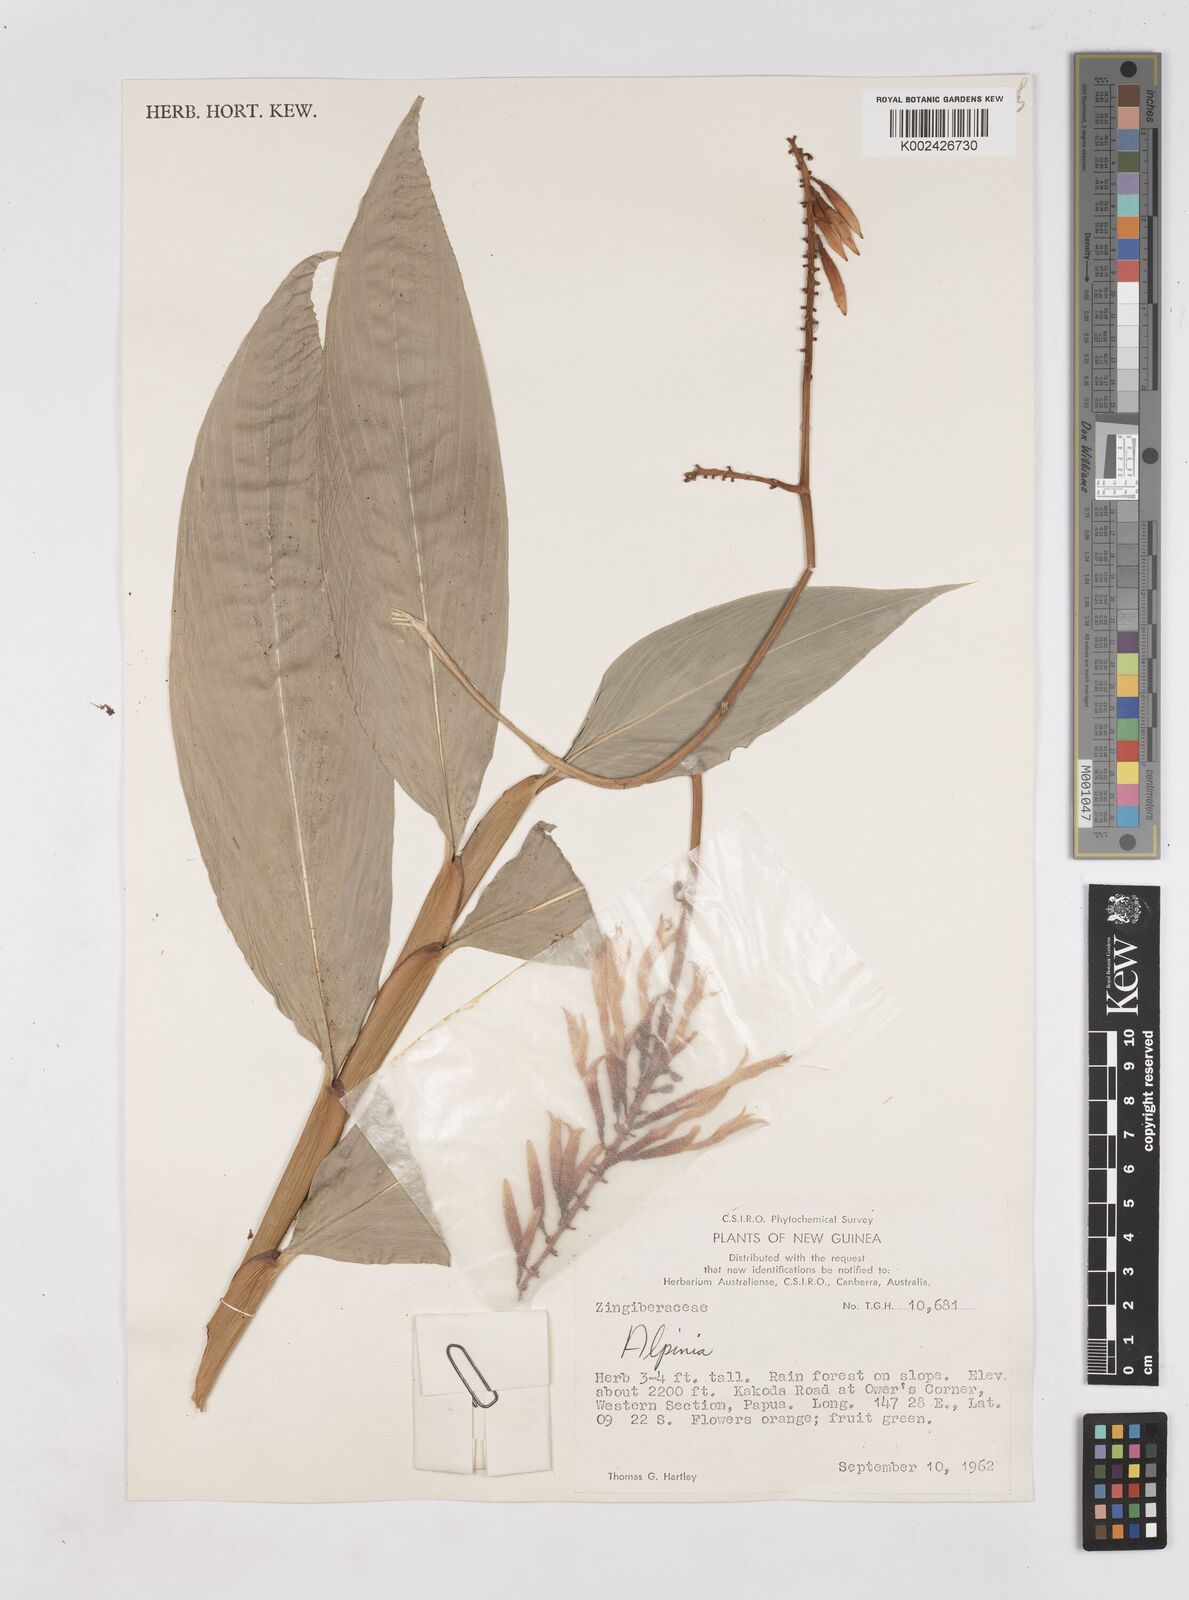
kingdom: Plantae
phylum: Tracheophyta
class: Liliopsida
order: Zingiberales
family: Zingiberaceae
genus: Riedelia
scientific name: Riedelia
